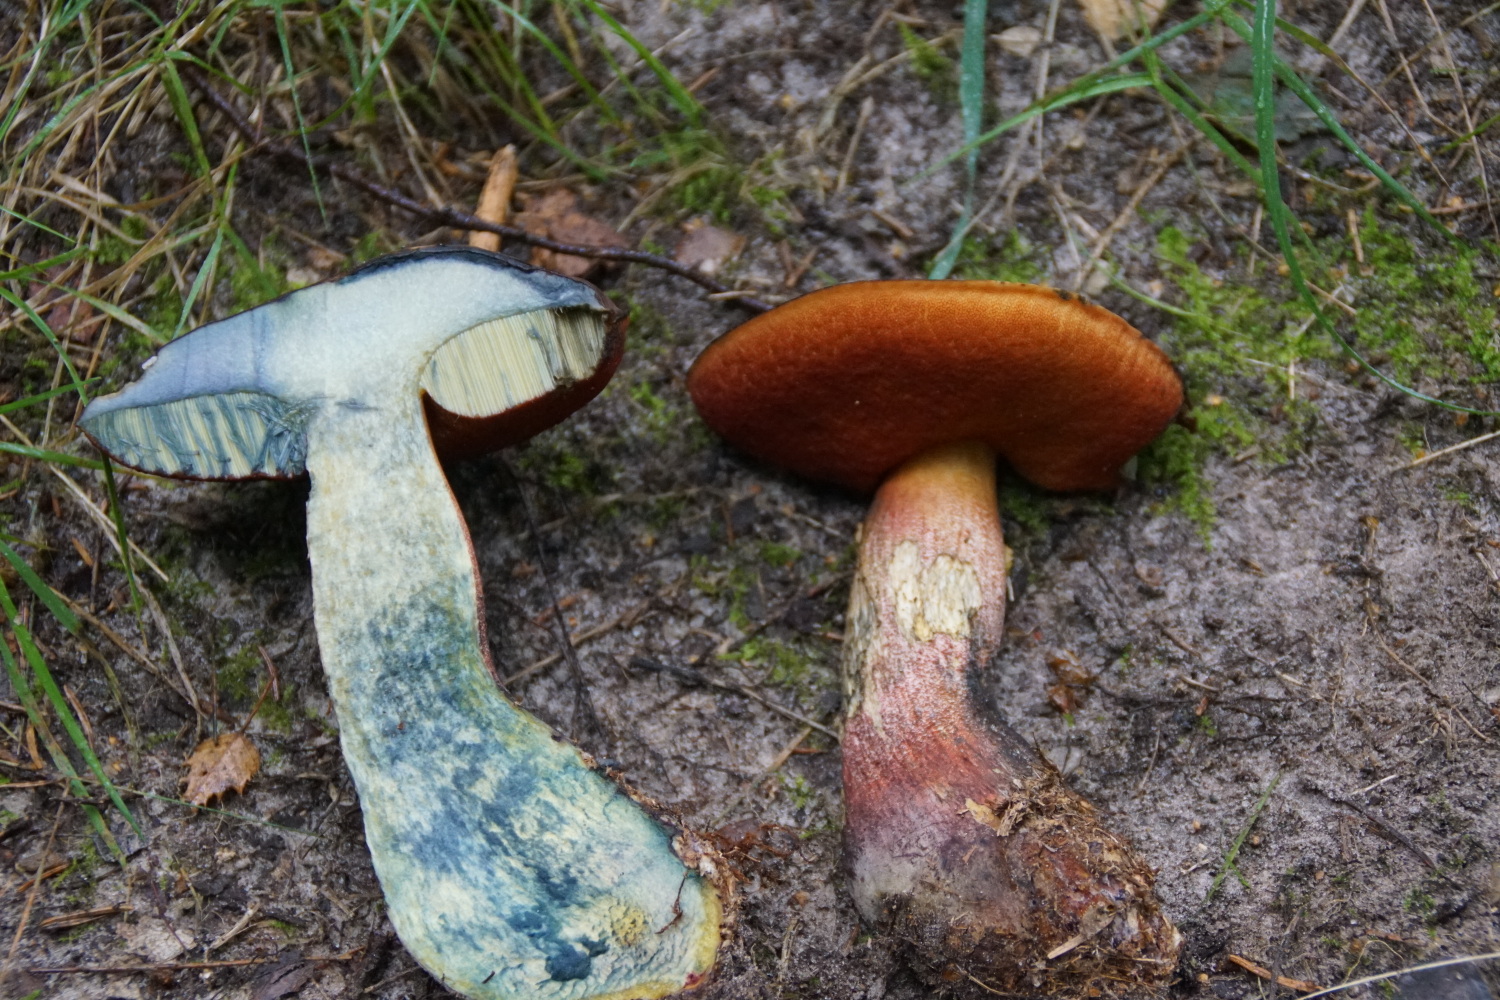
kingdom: Fungi
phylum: Basidiomycota
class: Agaricomycetes
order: Boletales
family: Boletaceae
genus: Neoboletus
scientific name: Neoboletus erythropus
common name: punktstokket indigorørhat
